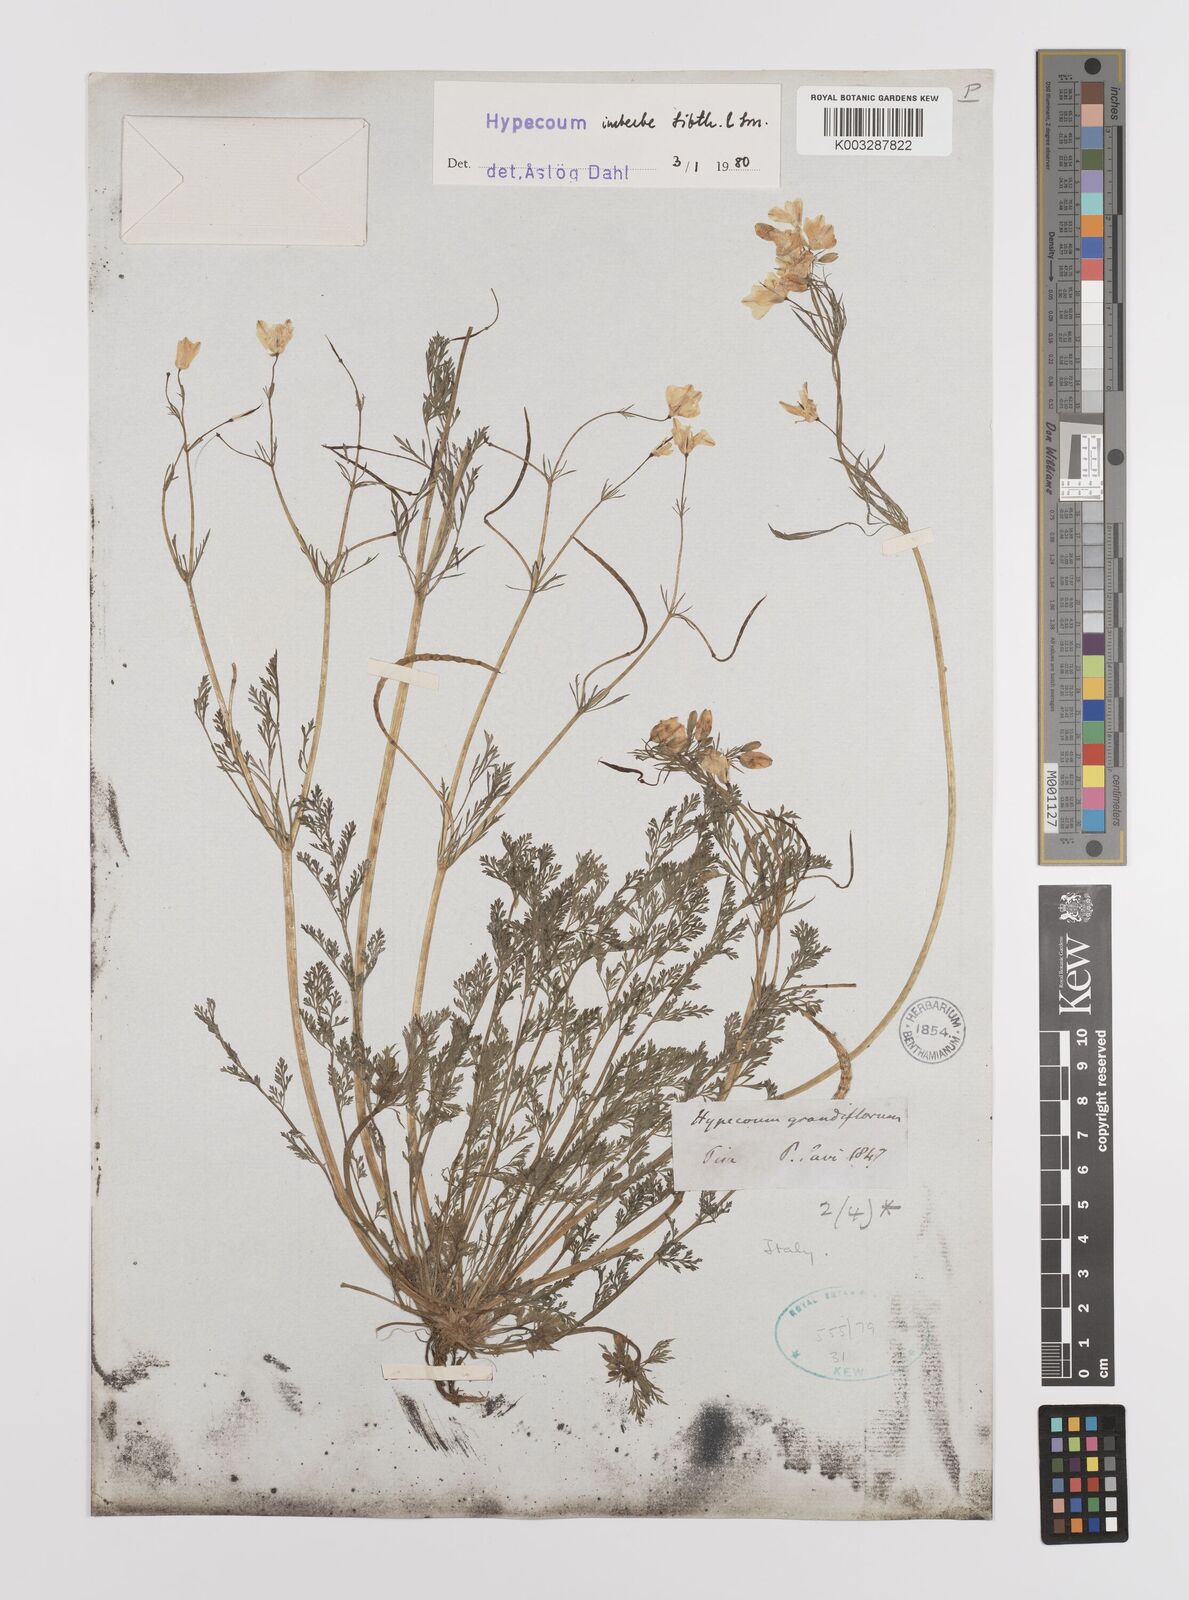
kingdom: Plantae
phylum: Tracheophyta
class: Magnoliopsida
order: Ranunculales
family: Papaveraceae
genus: Hypecoum
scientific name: Hypecoum imberbe
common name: Sicklefruit hypecoum
